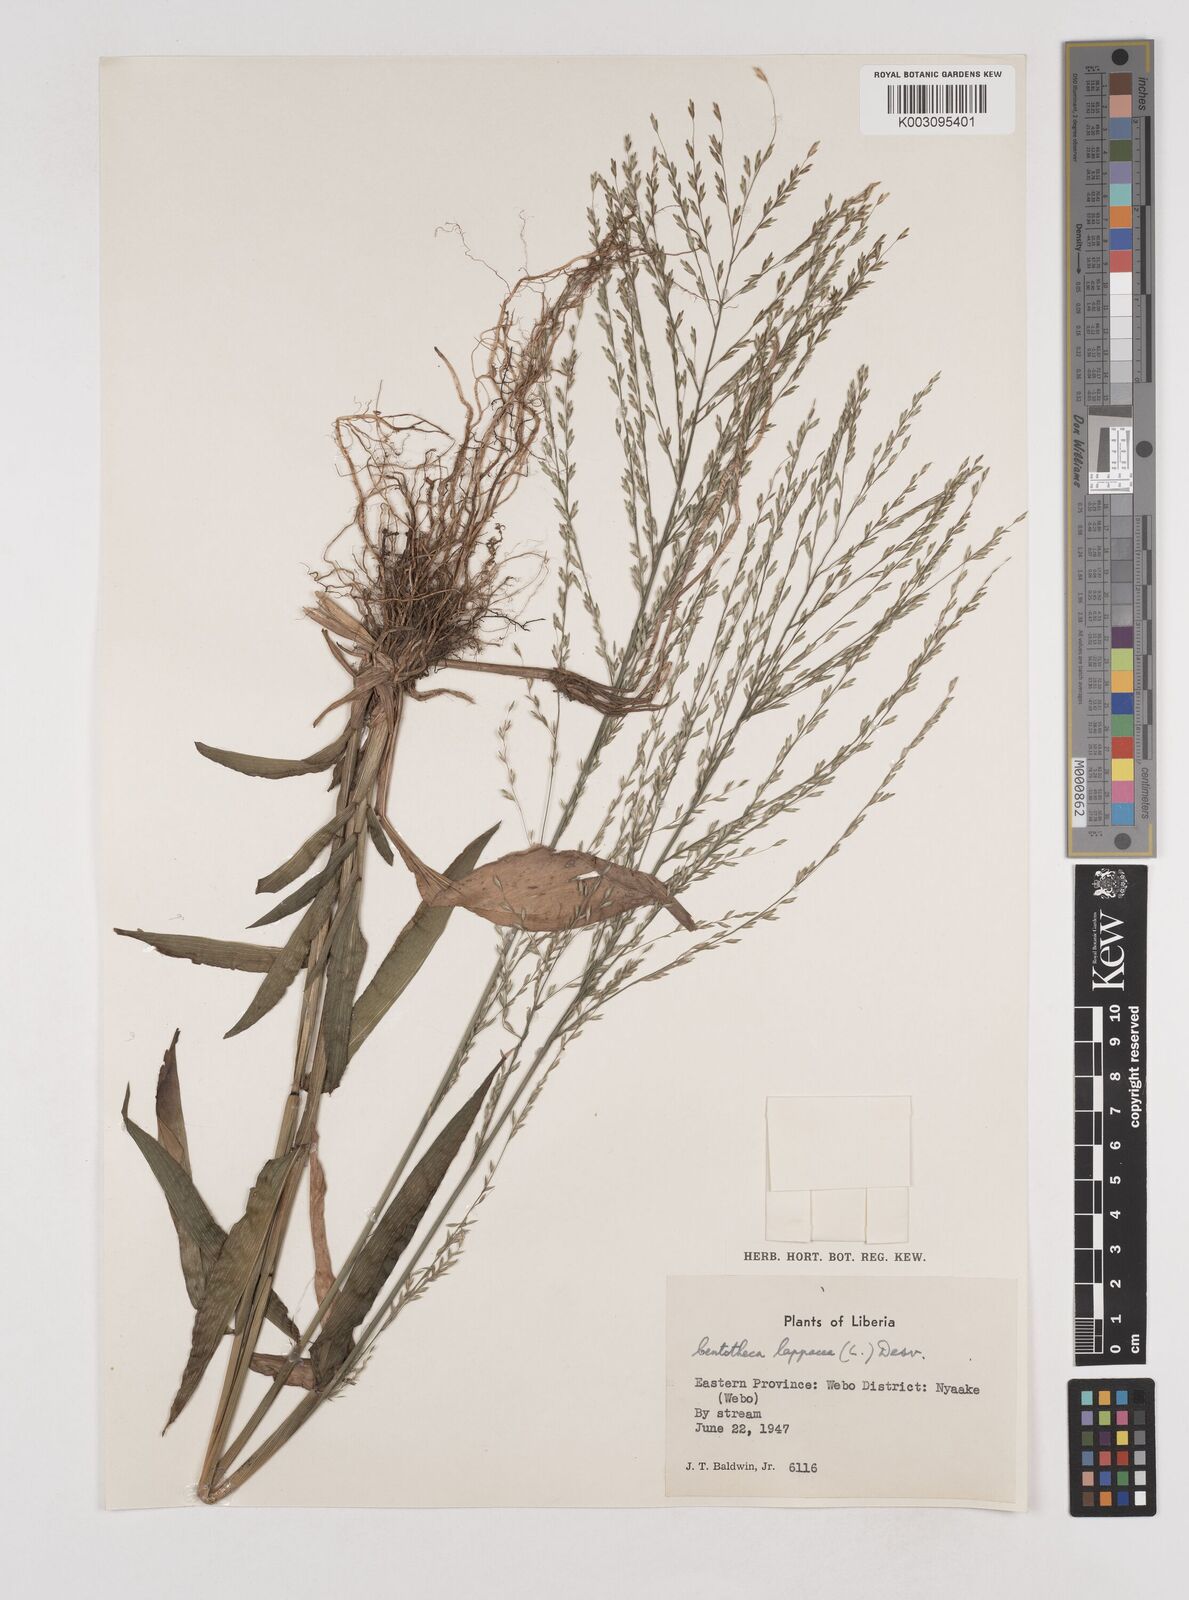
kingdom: Plantae
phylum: Tracheophyta
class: Liliopsida
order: Poales
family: Poaceae
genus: Centotheca
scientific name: Centotheca lappacea
